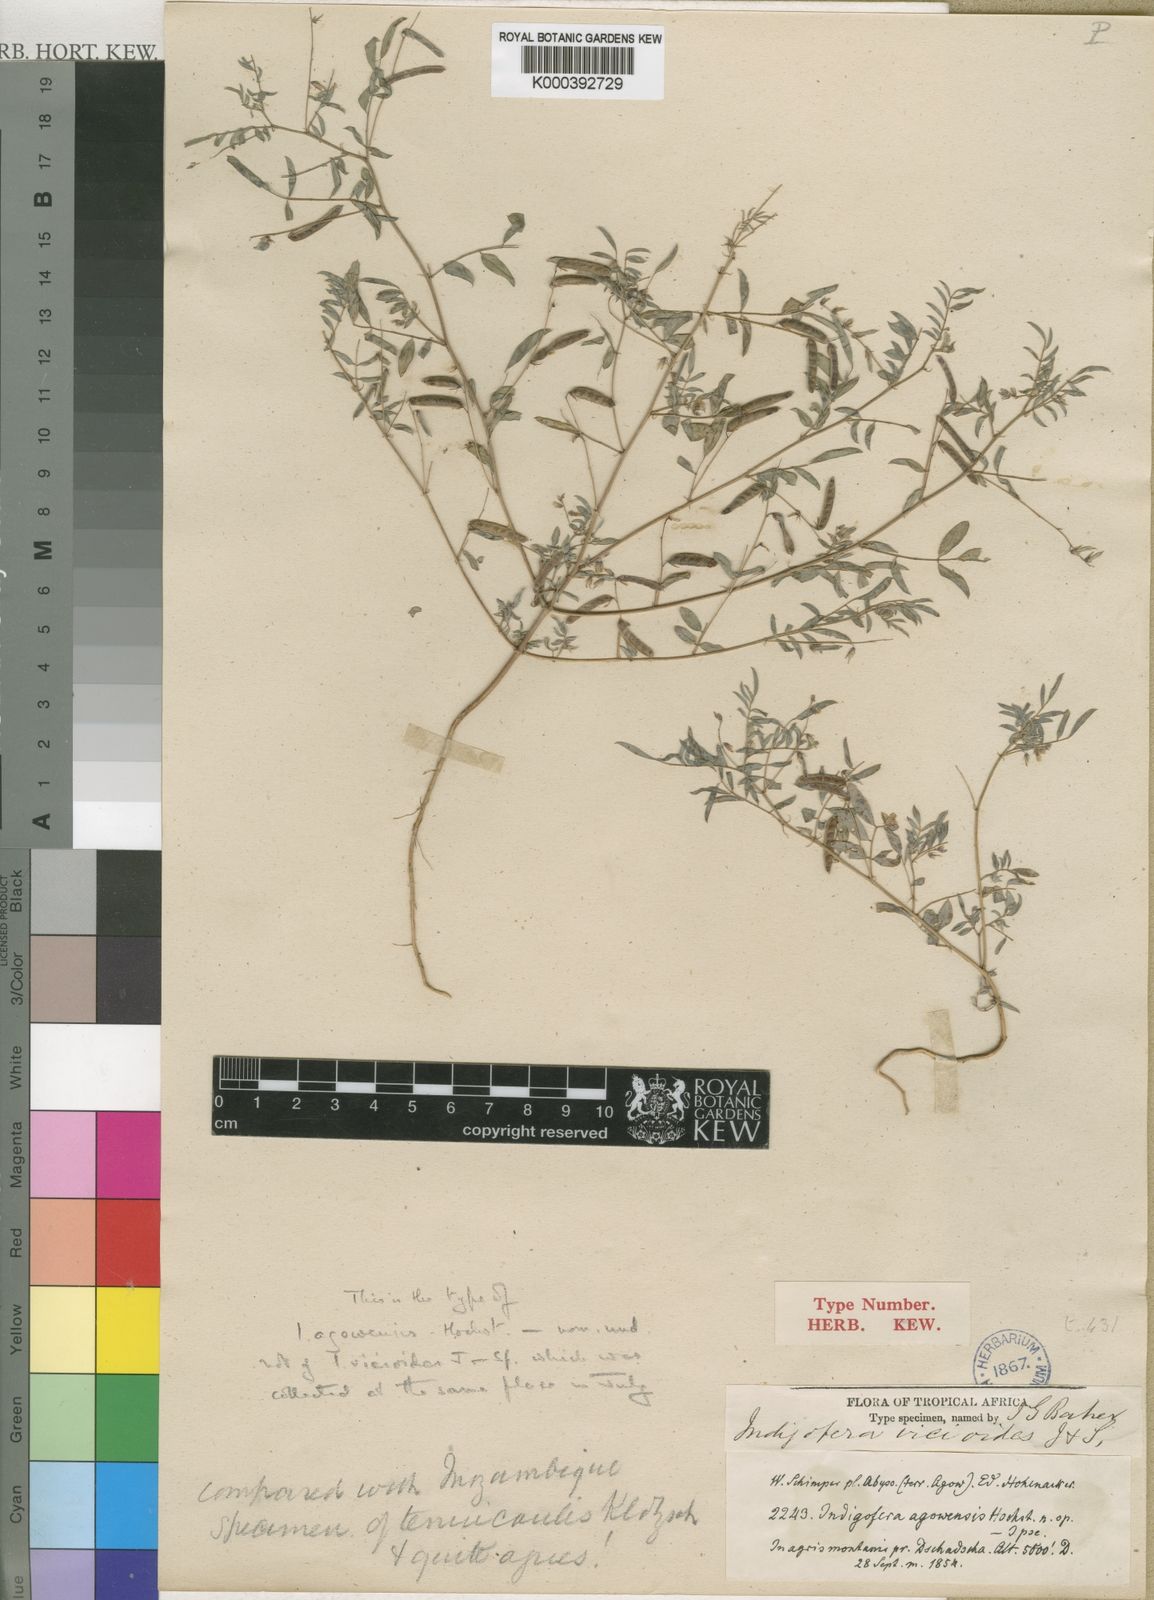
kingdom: Plantae
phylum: Tracheophyta
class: Magnoliopsida
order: Fabales
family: Fabaceae
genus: Indigofera
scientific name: Indigofera vicioides
